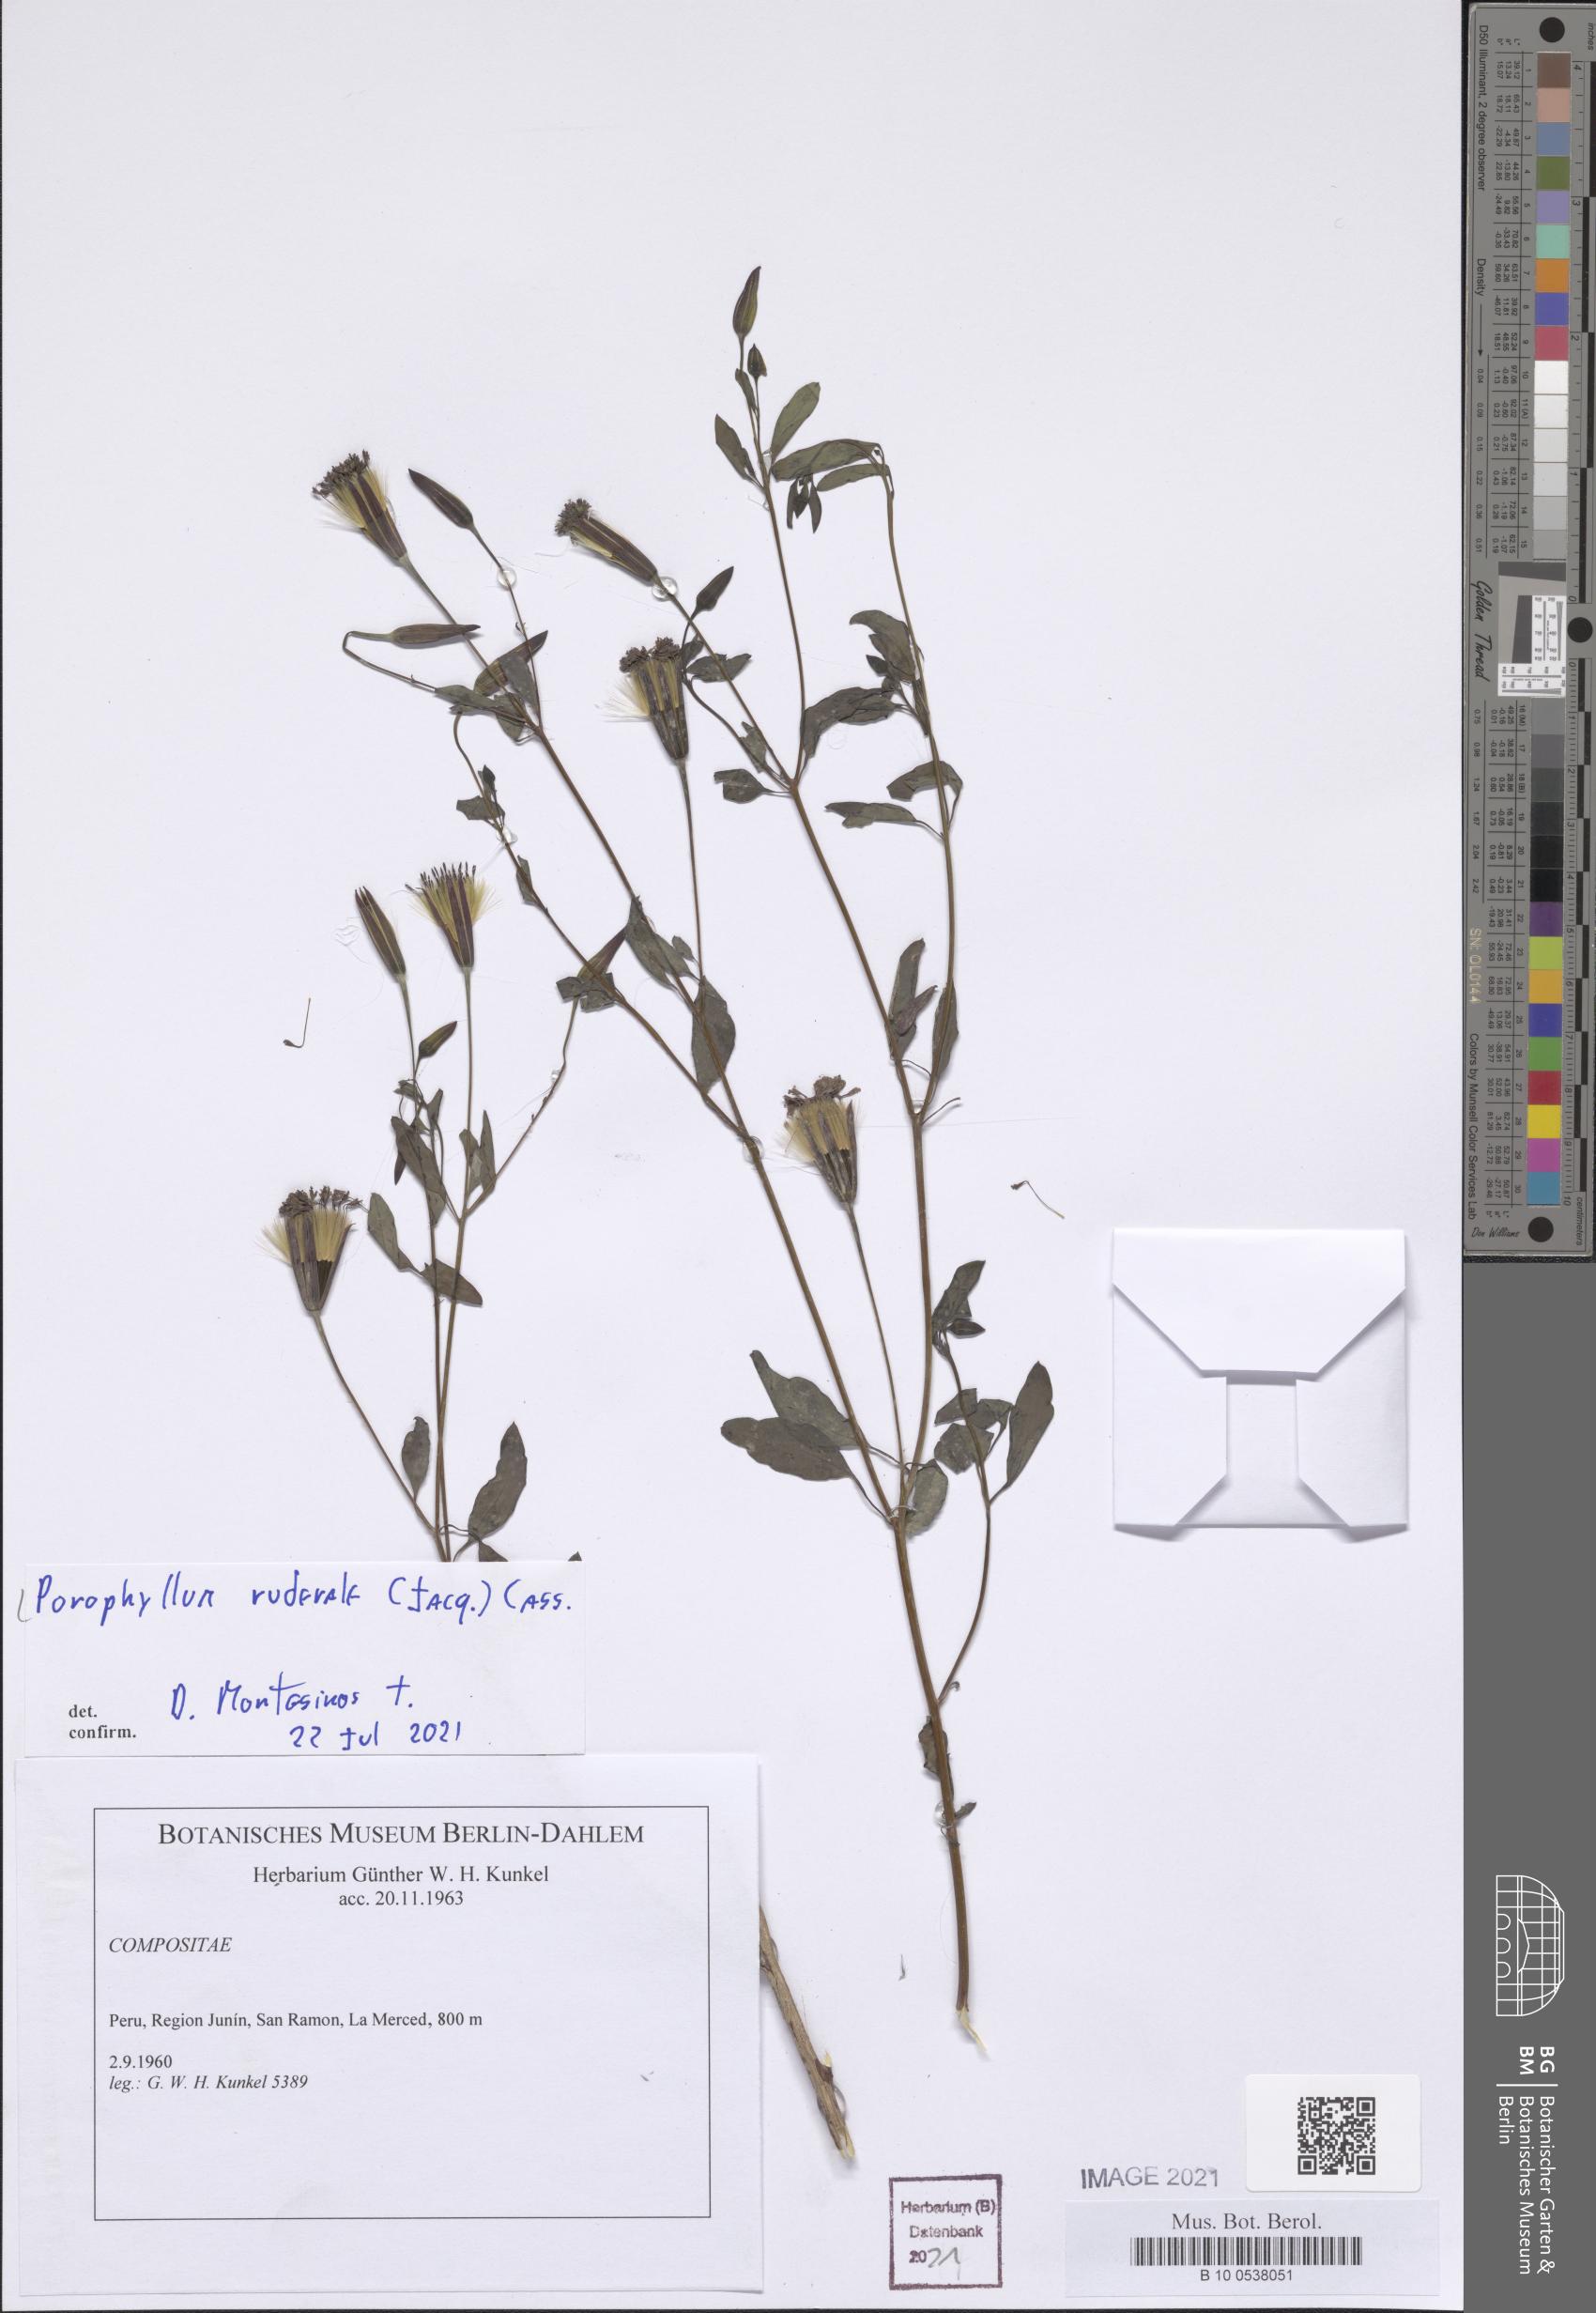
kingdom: Plantae
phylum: Tracheophyta
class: Magnoliopsida
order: Asterales
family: Asteraceae
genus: Porophyllum
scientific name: Porophyllum ruderale
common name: Yerba porosa
